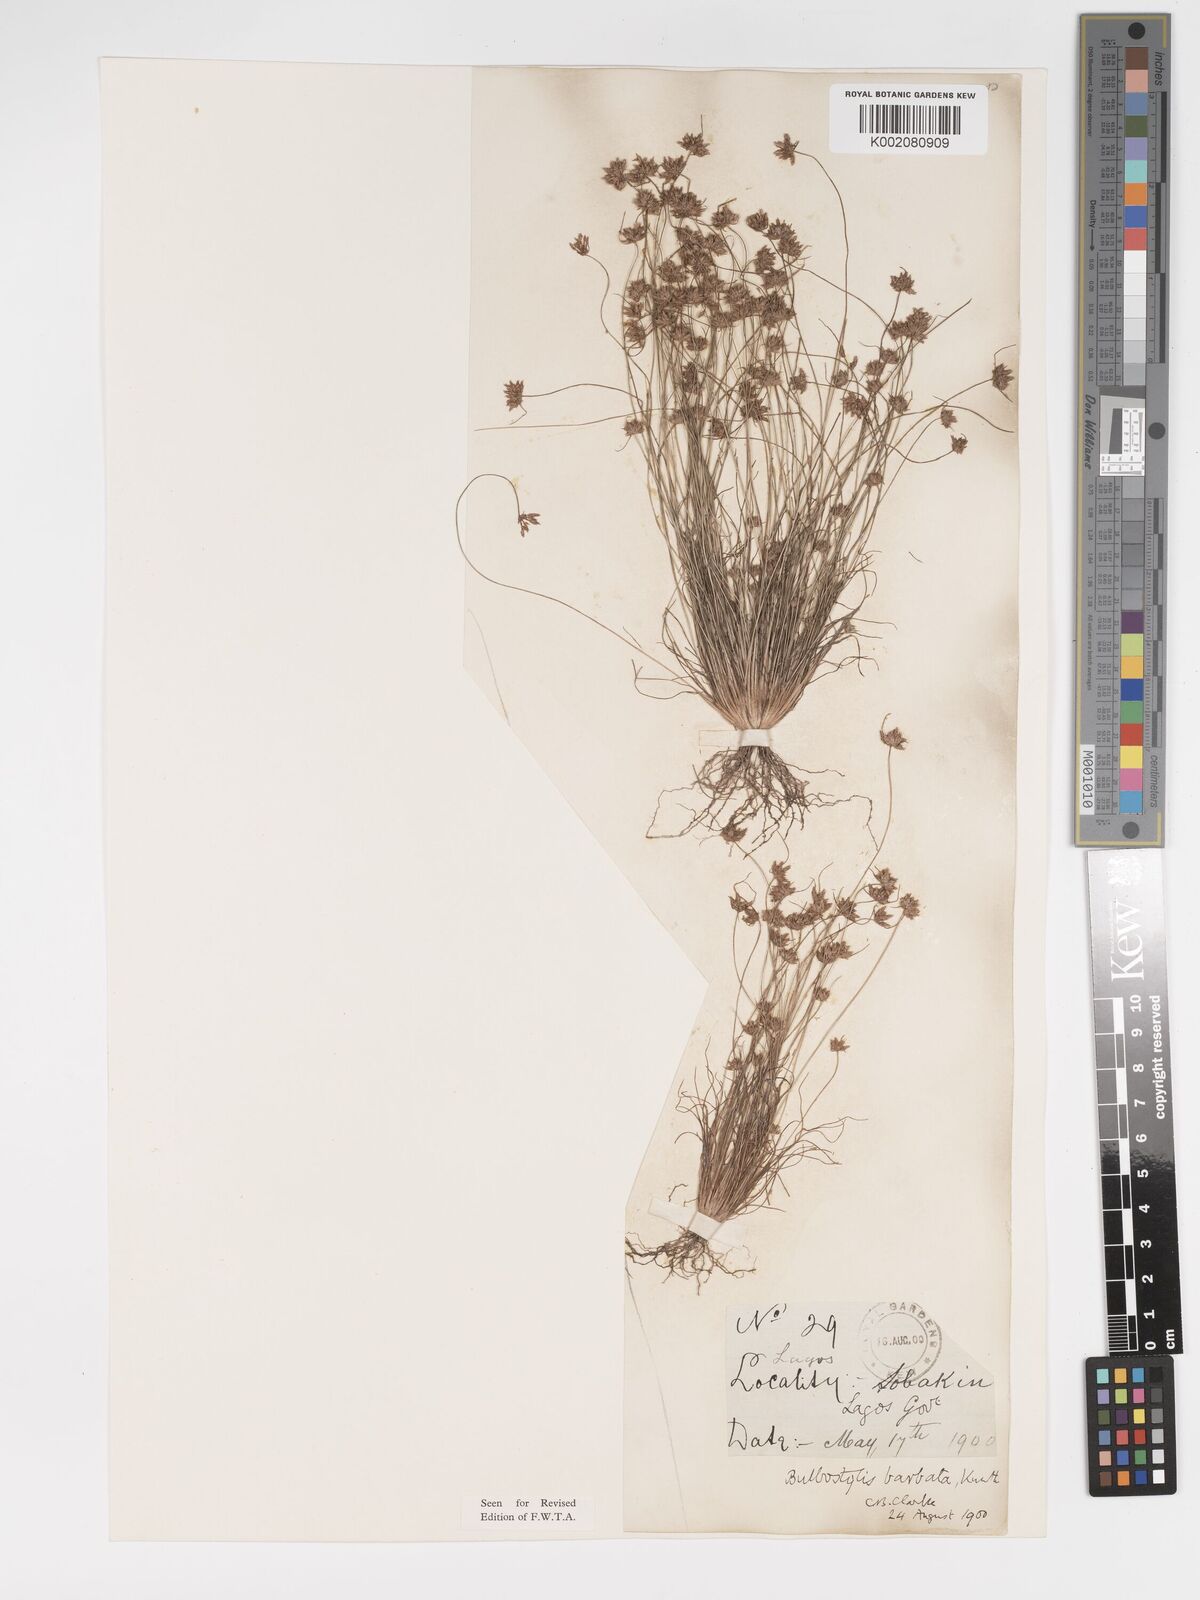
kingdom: Plantae
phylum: Tracheophyta
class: Liliopsida
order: Poales
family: Cyperaceae
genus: Bulbostylis
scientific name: Bulbostylis barbata
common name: Watergrass
